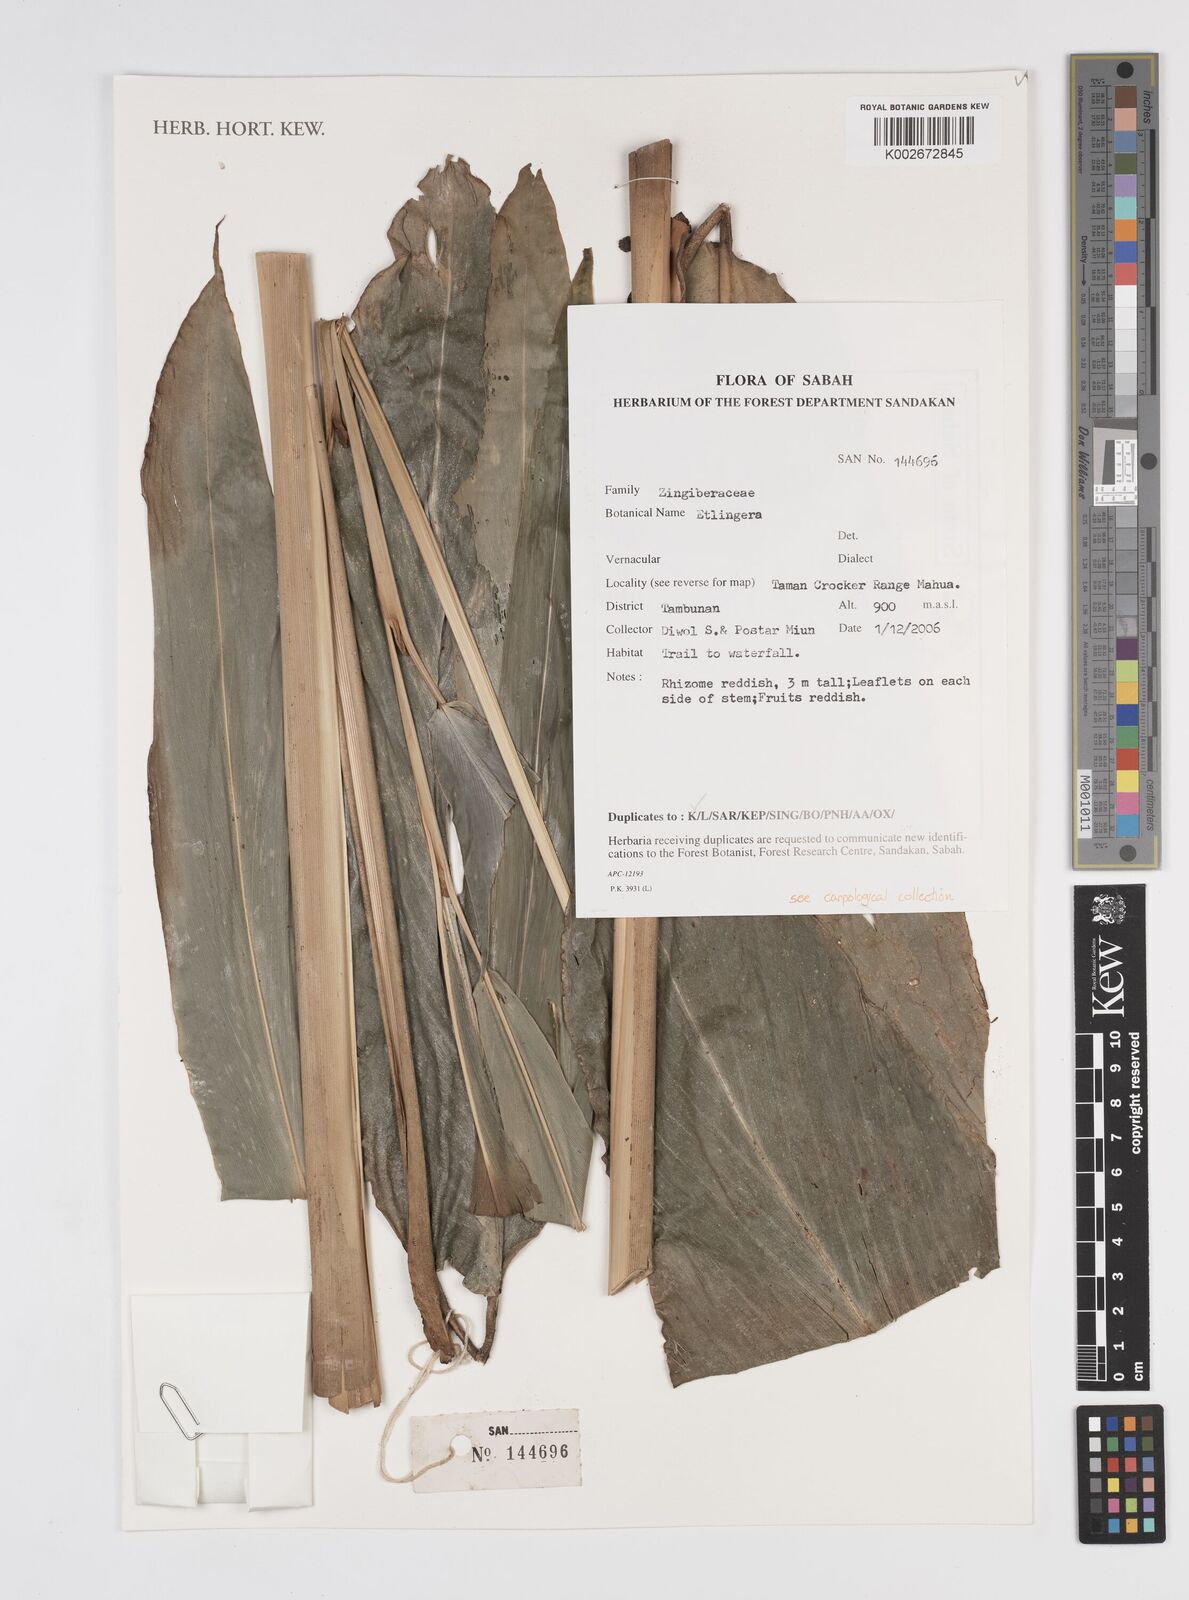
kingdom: Plantae
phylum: Tracheophyta
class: Liliopsida
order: Zingiberales
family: Zingiberaceae
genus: Etlingera
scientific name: Etlingera
